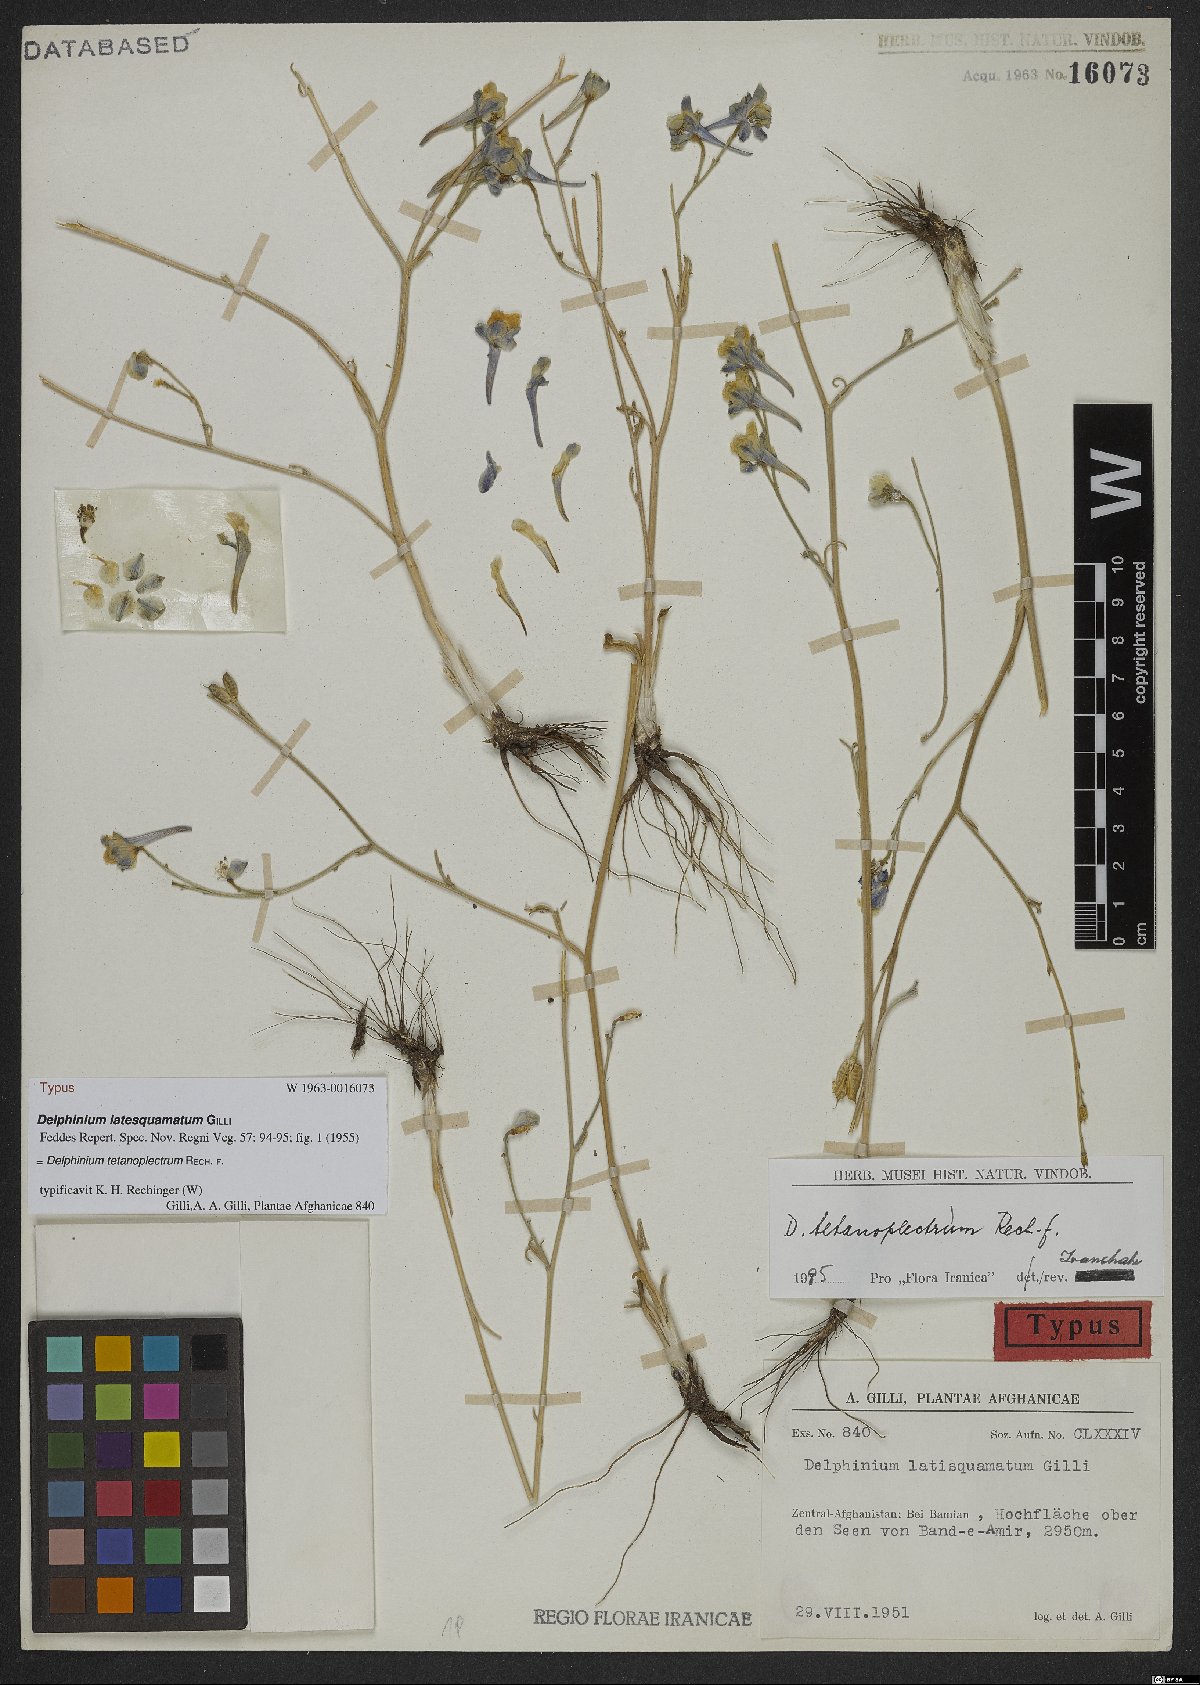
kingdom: Plantae
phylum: Tracheophyta
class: Magnoliopsida
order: Ranunculales
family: Ranunculaceae
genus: Delphinium
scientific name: Delphinium tetanoplectrum
